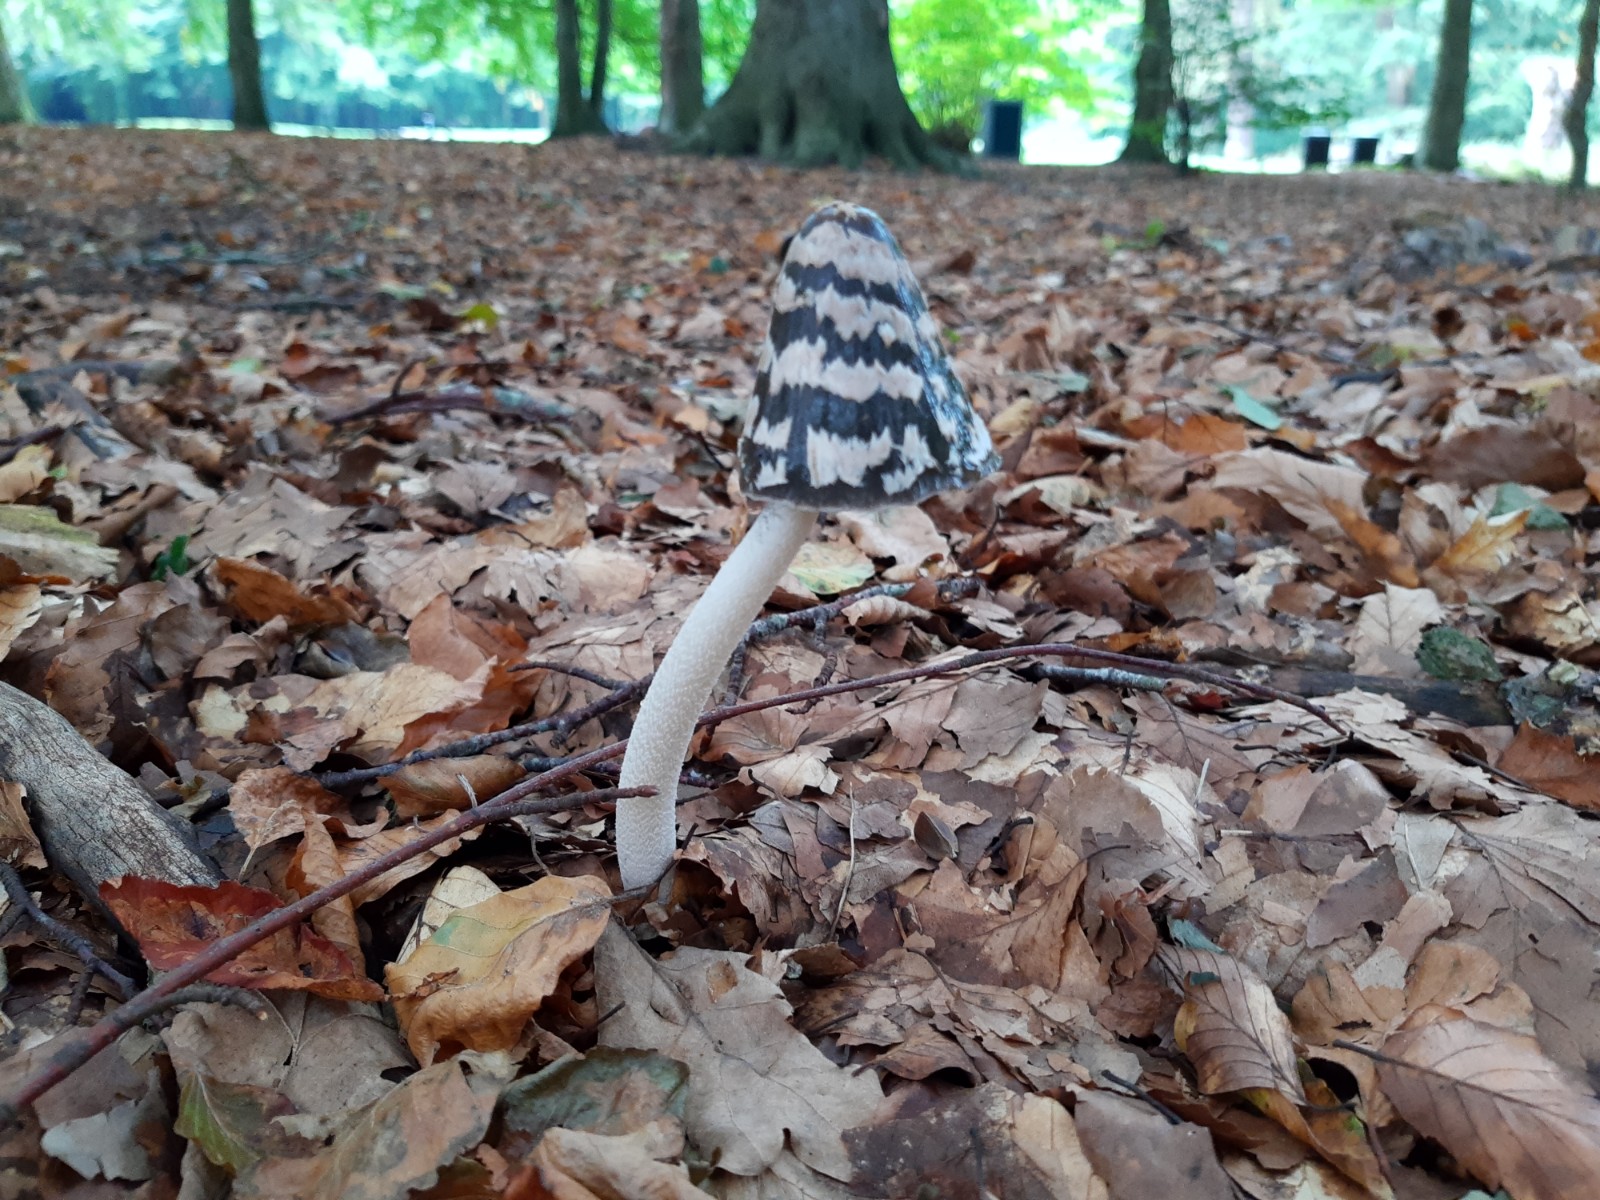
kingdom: Fungi
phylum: Basidiomycota
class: Agaricomycetes
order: Agaricales
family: Psathyrellaceae
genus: Coprinopsis
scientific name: Coprinopsis picacea
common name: skade-blækhat
